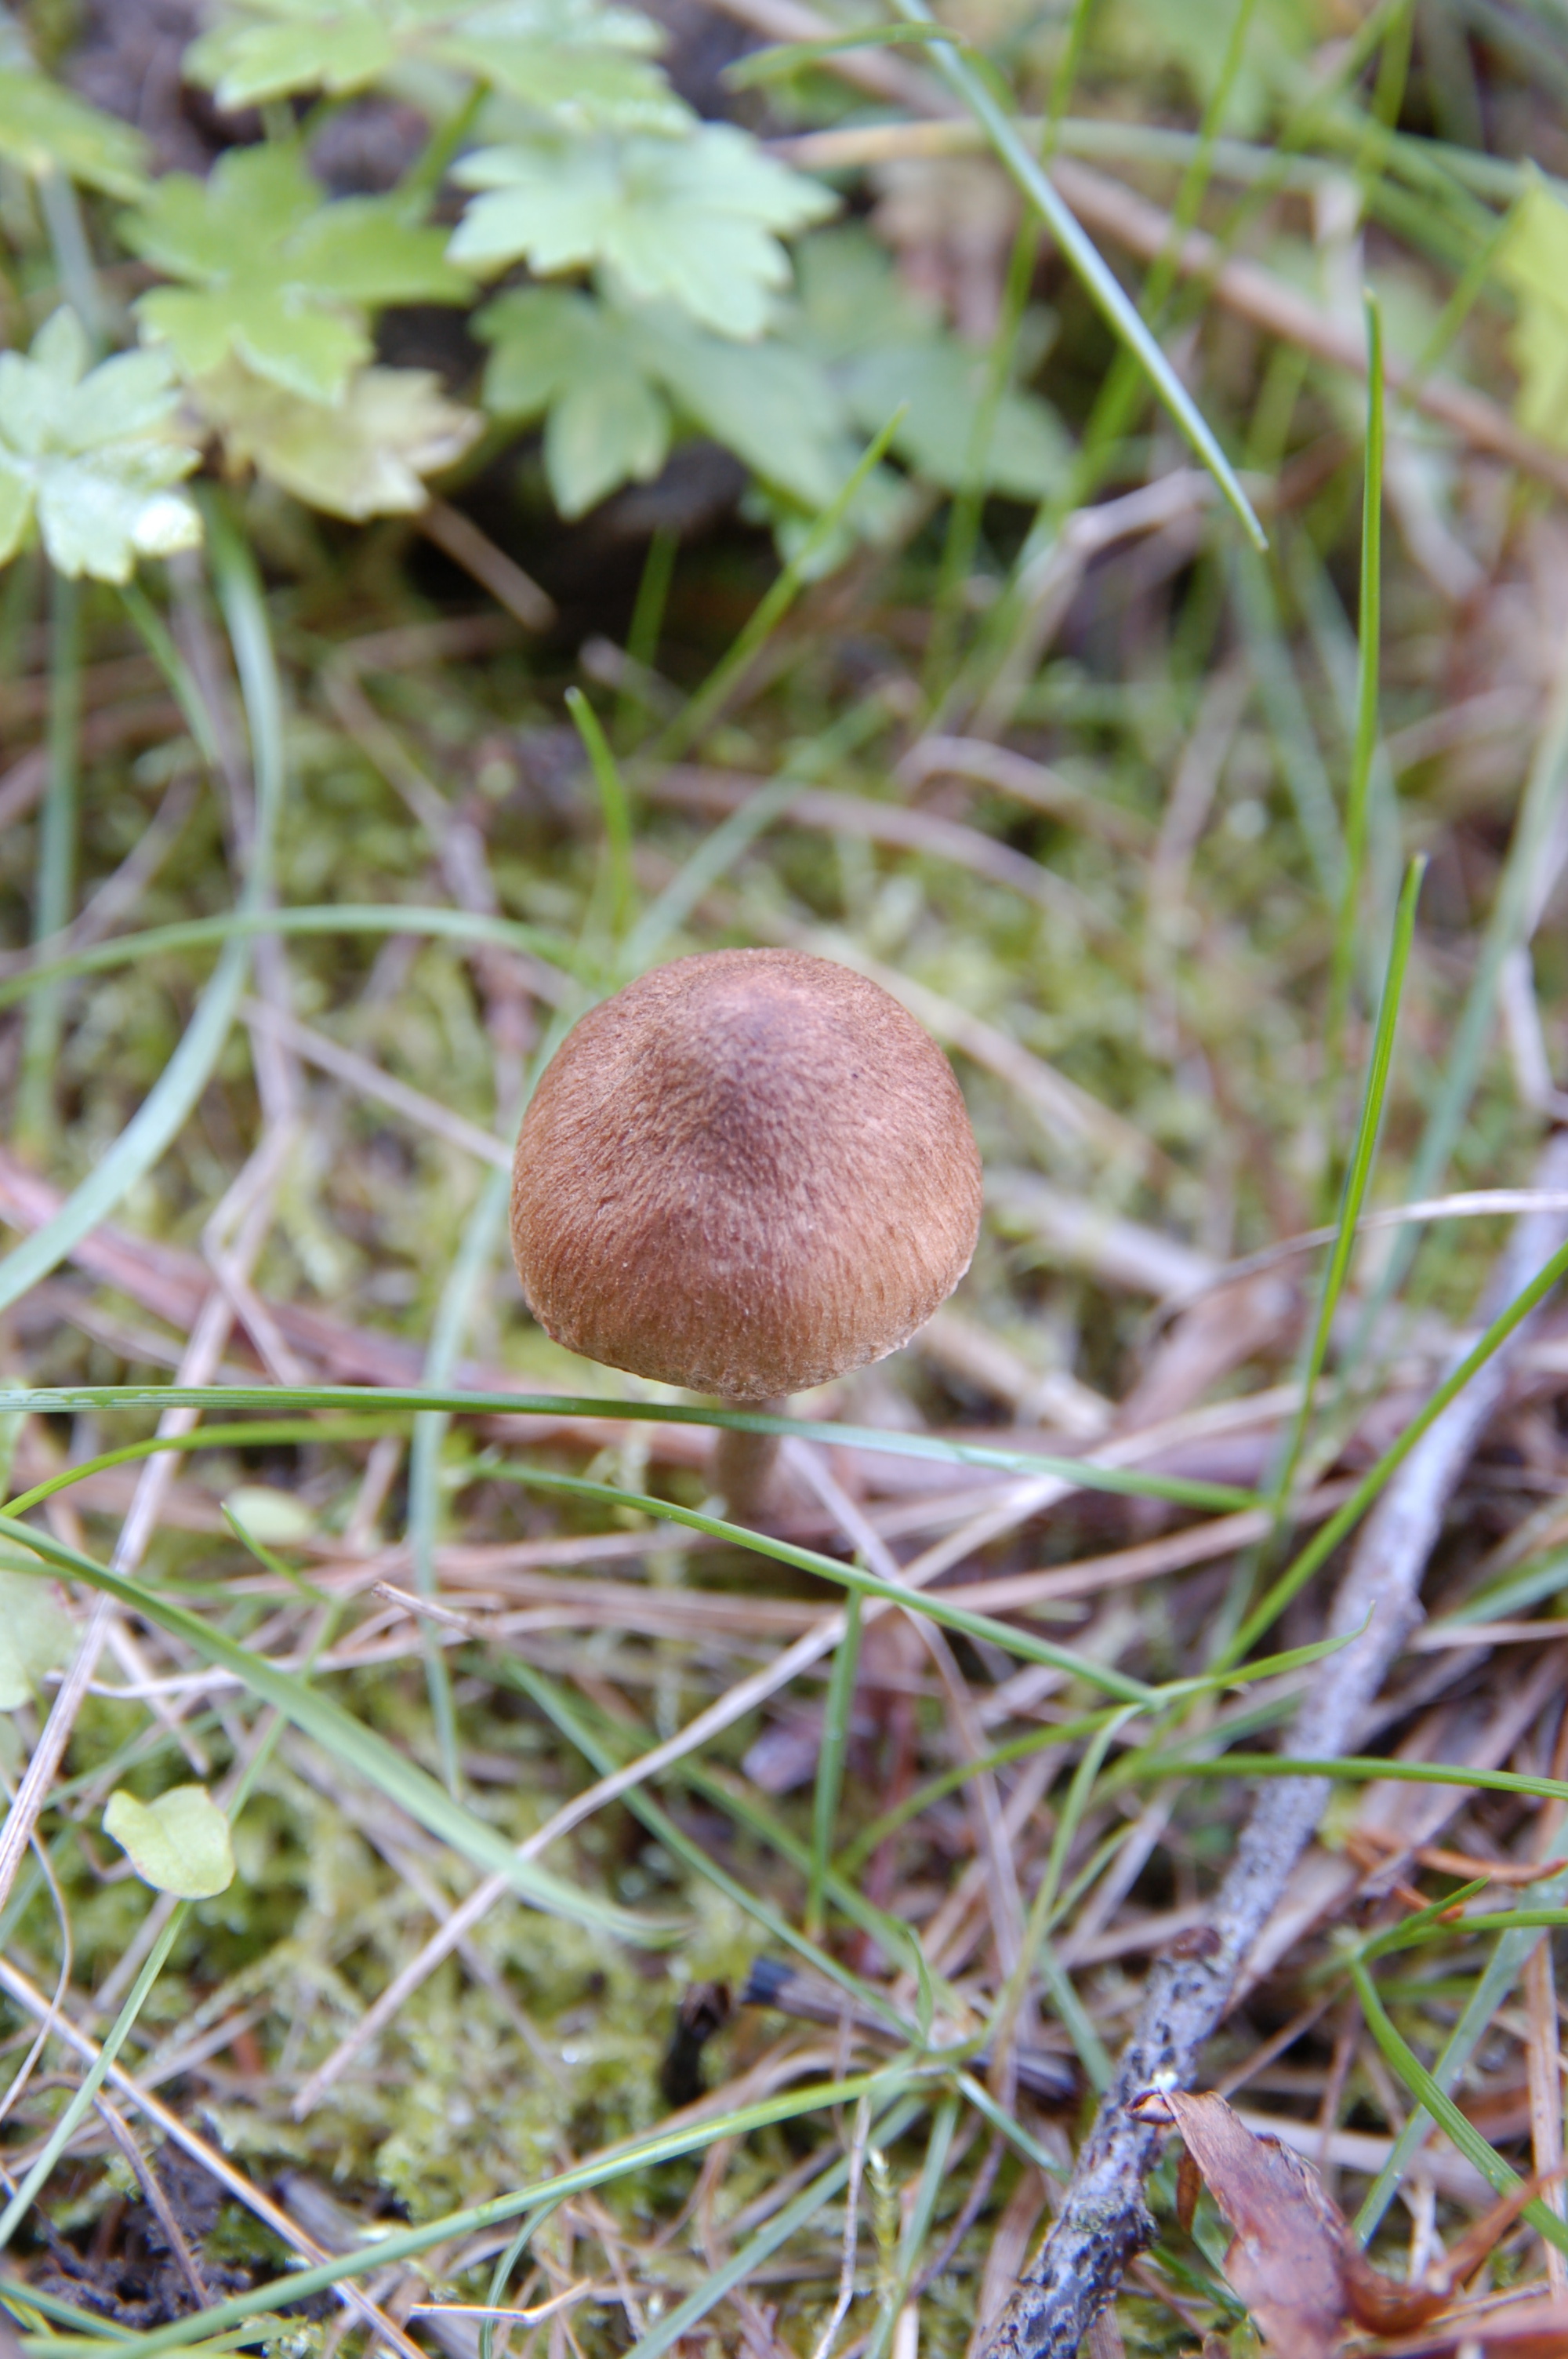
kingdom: Fungi
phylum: Basidiomycota
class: Agaricomycetes
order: Agaricales
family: Inocybaceae
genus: Inocybe
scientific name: Inocybe
